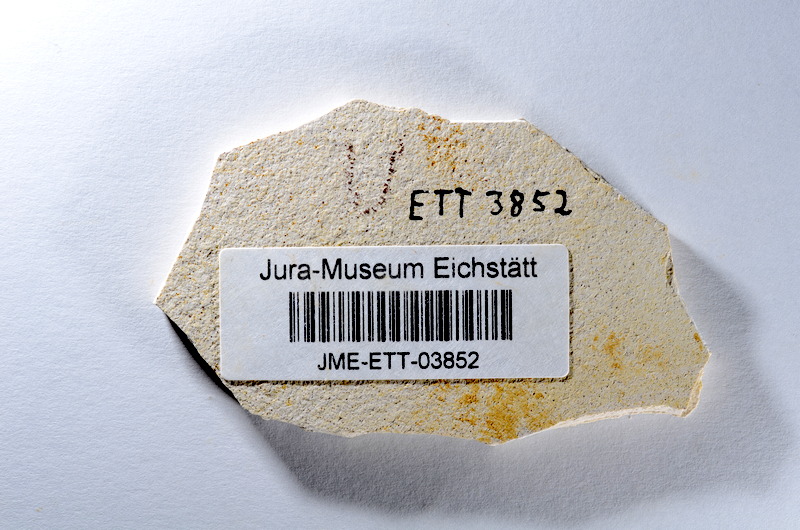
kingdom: Animalia
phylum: Chordata
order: Salmoniformes
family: Orthogonikleithridae
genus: Orthogonikleithrus
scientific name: Orthogonikleithrus hoelli
